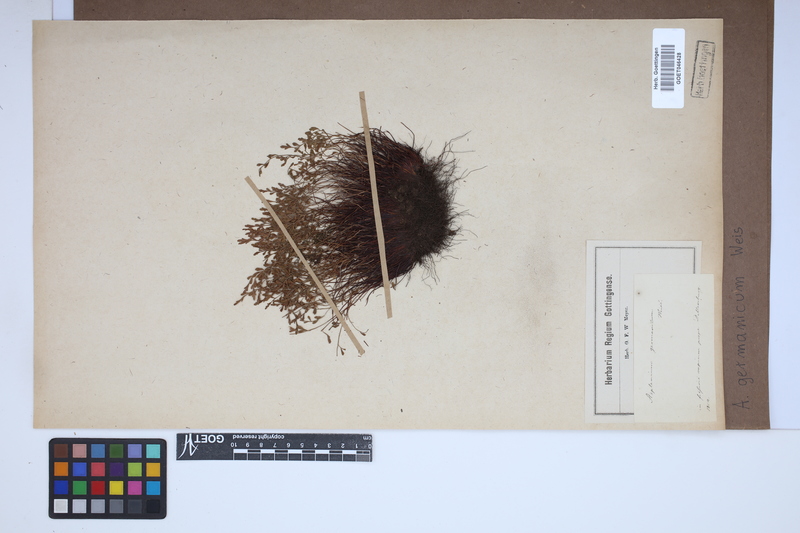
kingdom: Plantae
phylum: Tracheophyta
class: Polypodiopsida
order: Polypodiales
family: Aspleniaceae
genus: Asplenium
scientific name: Asplenium
